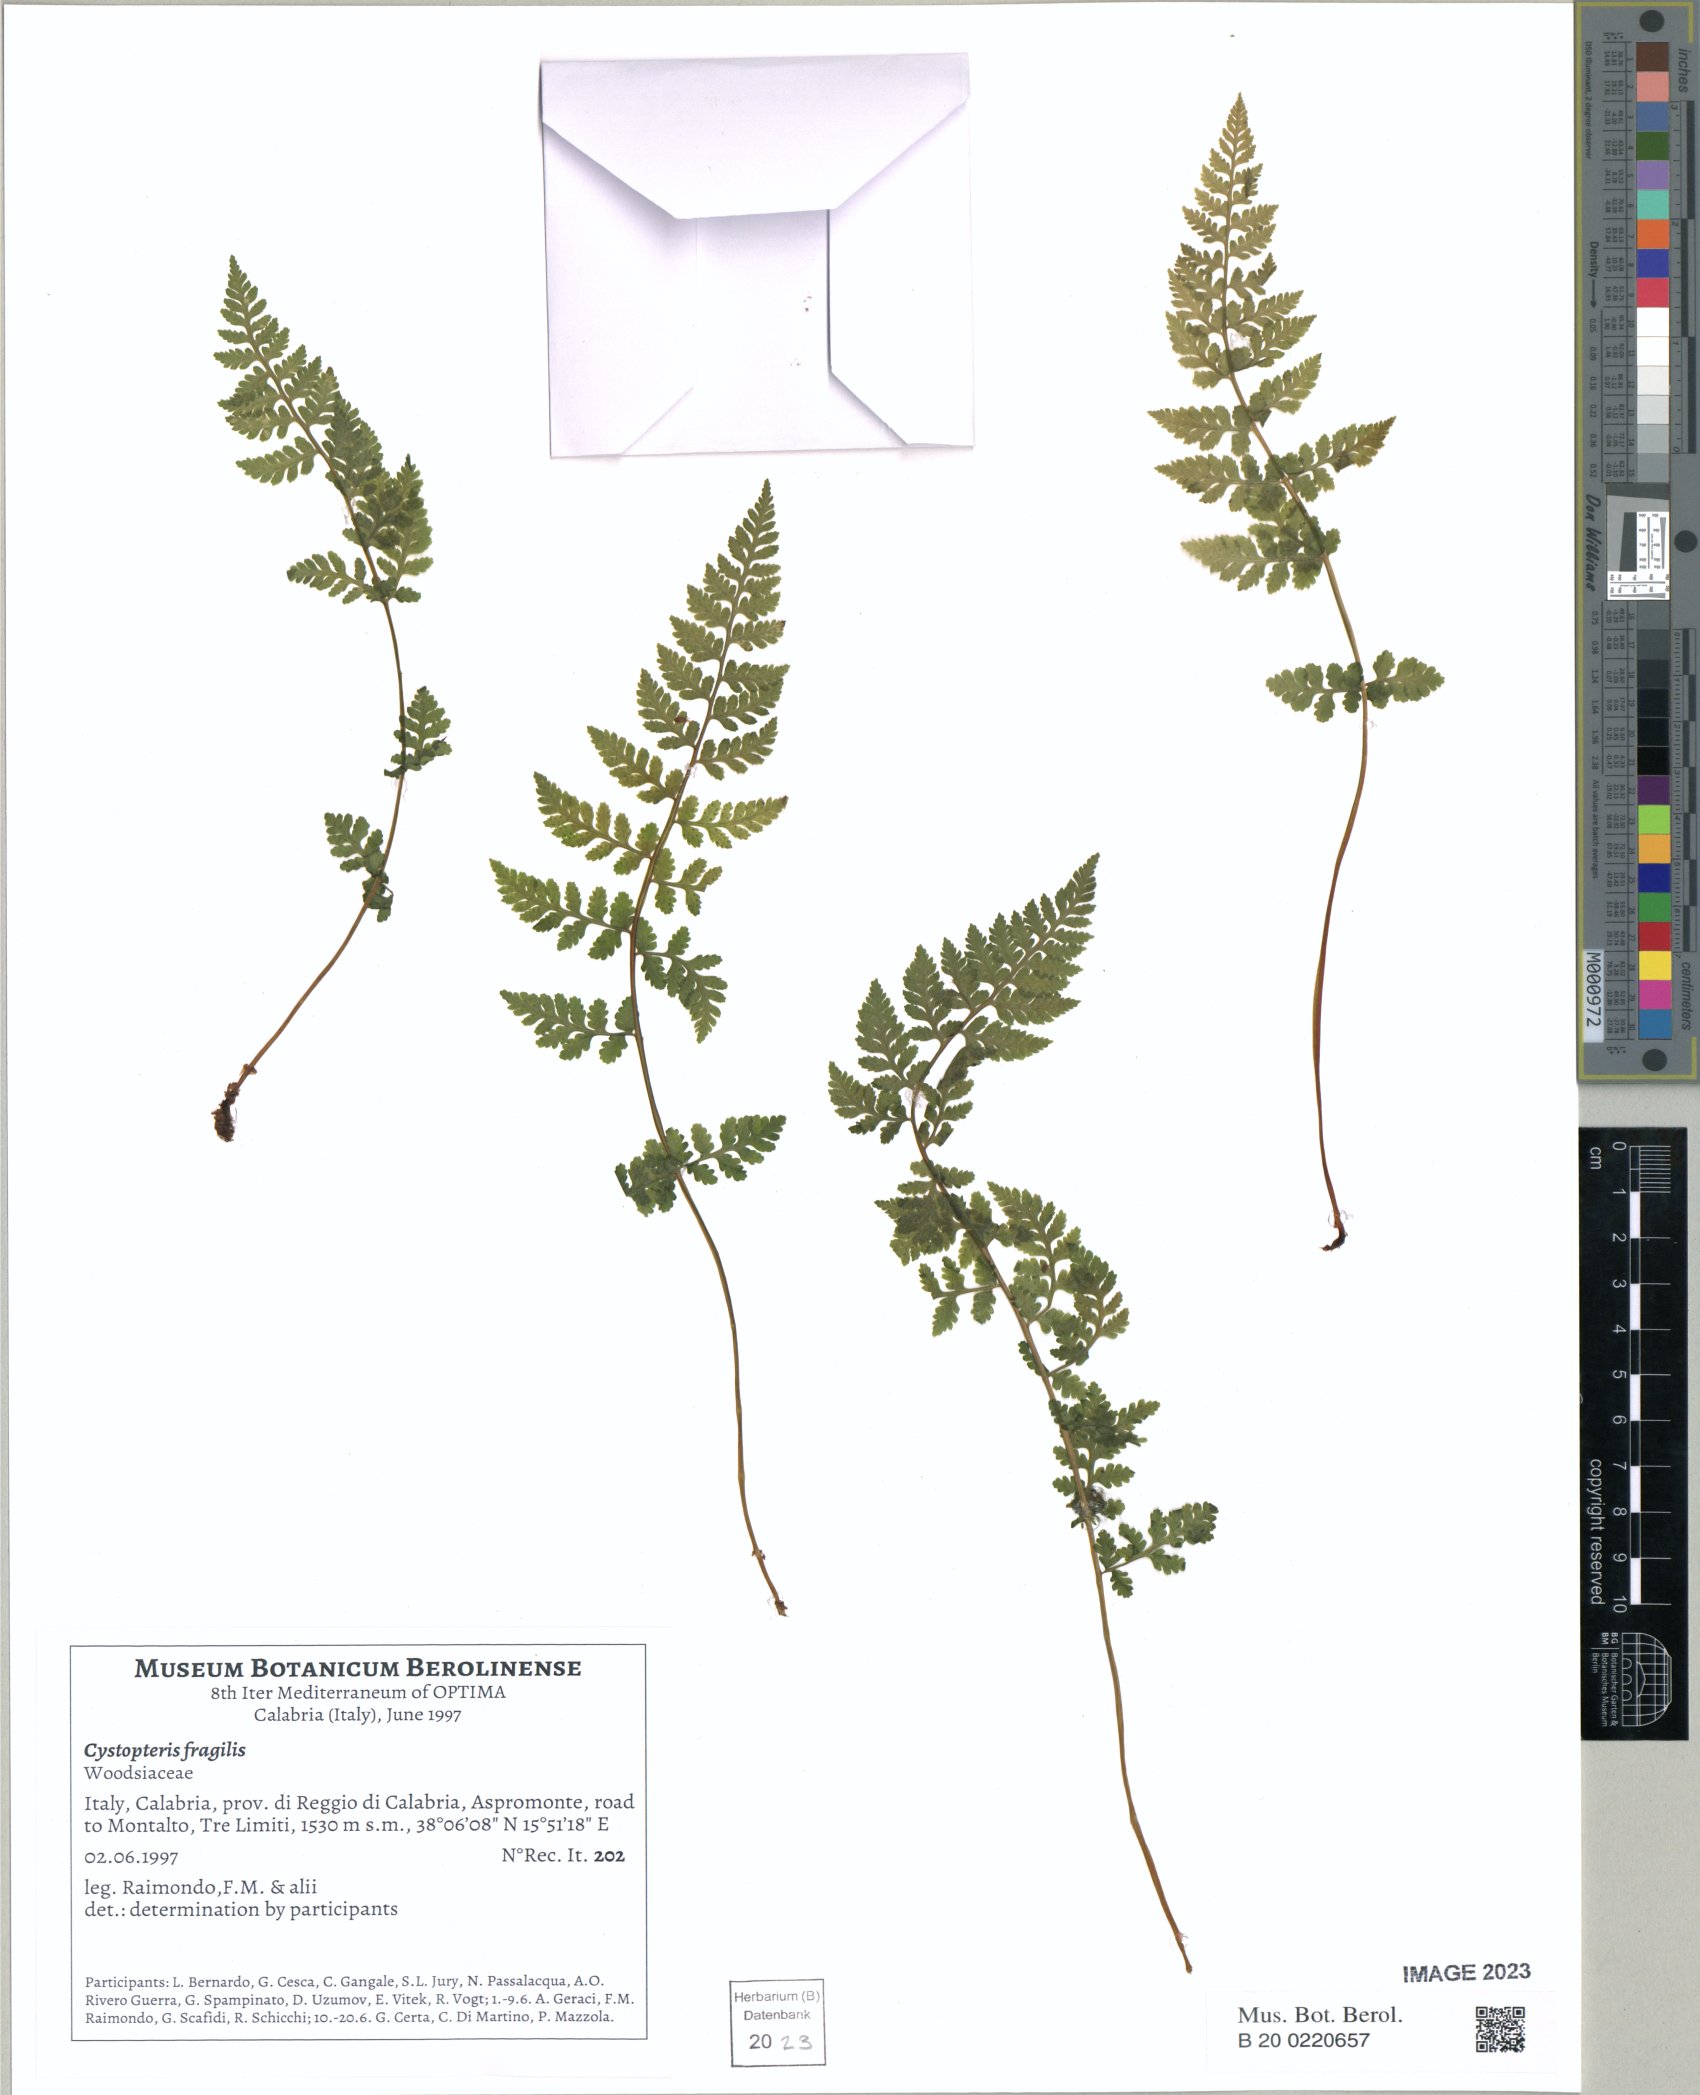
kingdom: Plantae
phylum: Tracheophyta
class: Polypodiopsida
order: Polypodiales
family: Cystopteridaceae
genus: Cystopteris
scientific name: Cystopteris fragilis
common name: Brittle bladder fern
